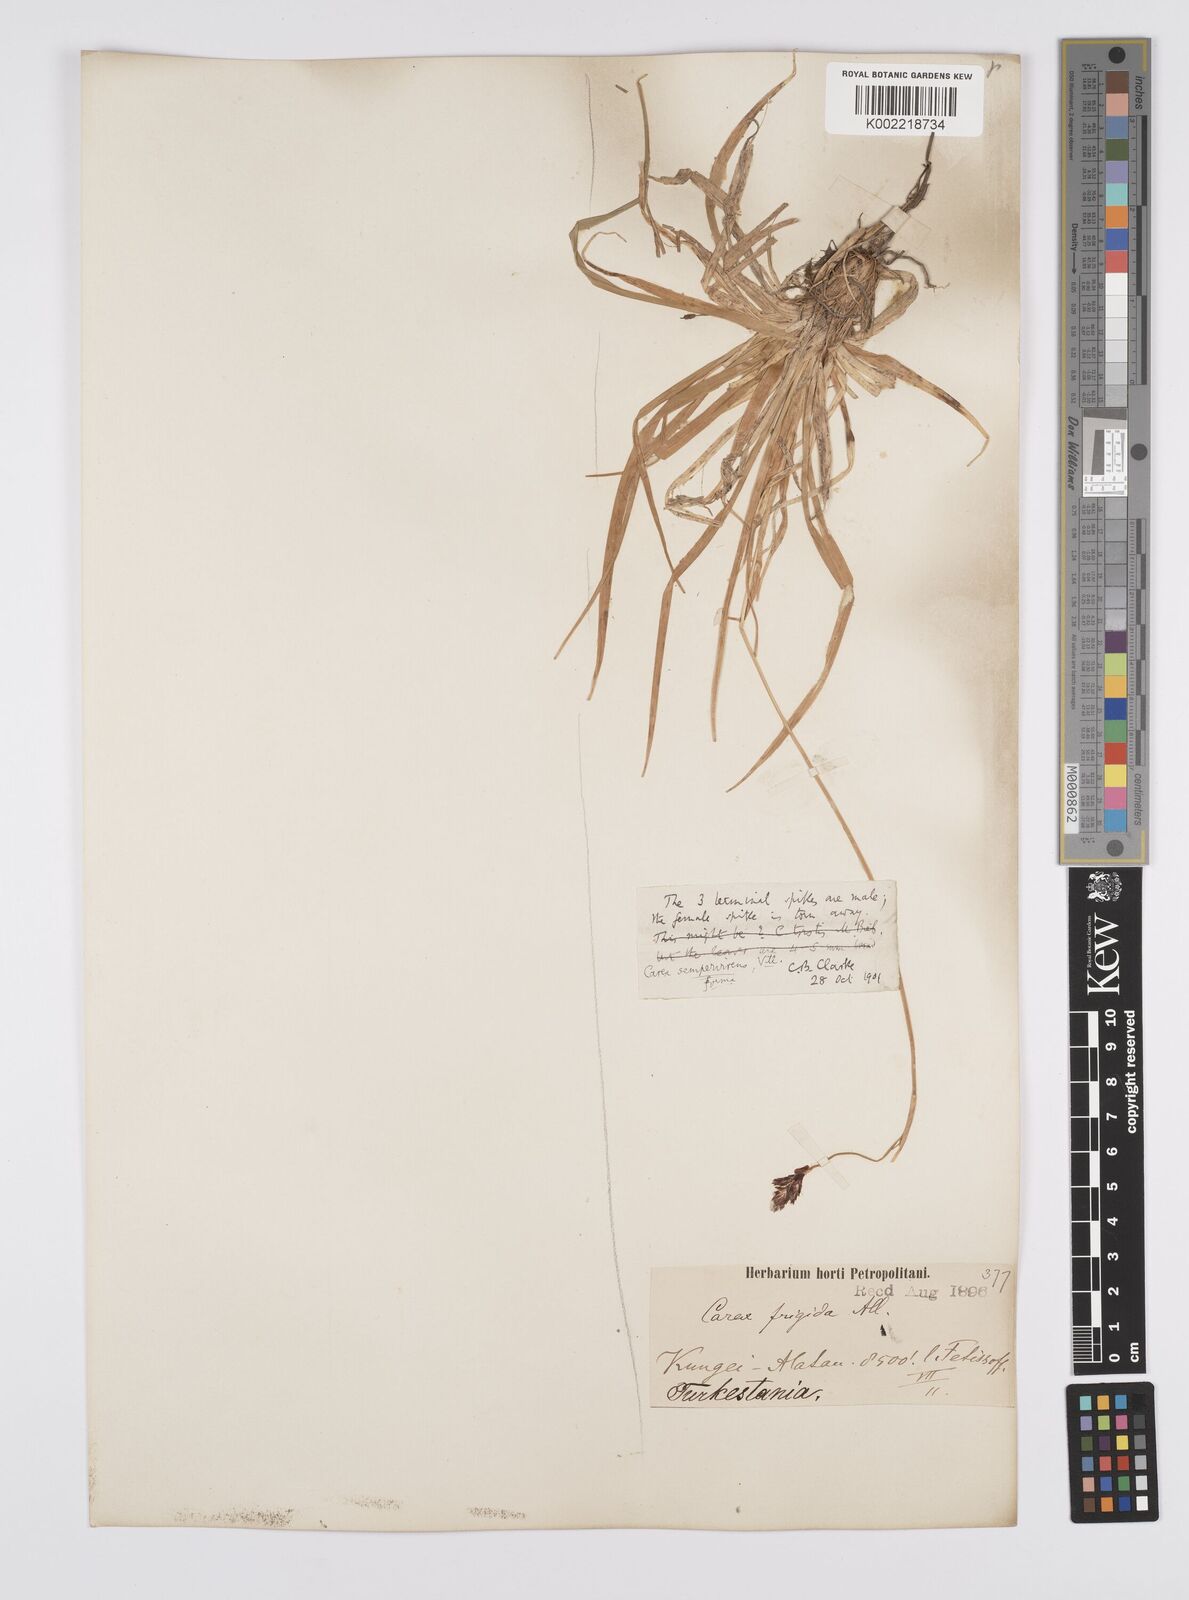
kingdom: Plantae
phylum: Tracheophyta
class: Liliopsida
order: Poales
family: Cyperaceae
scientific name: Cyperaceae
